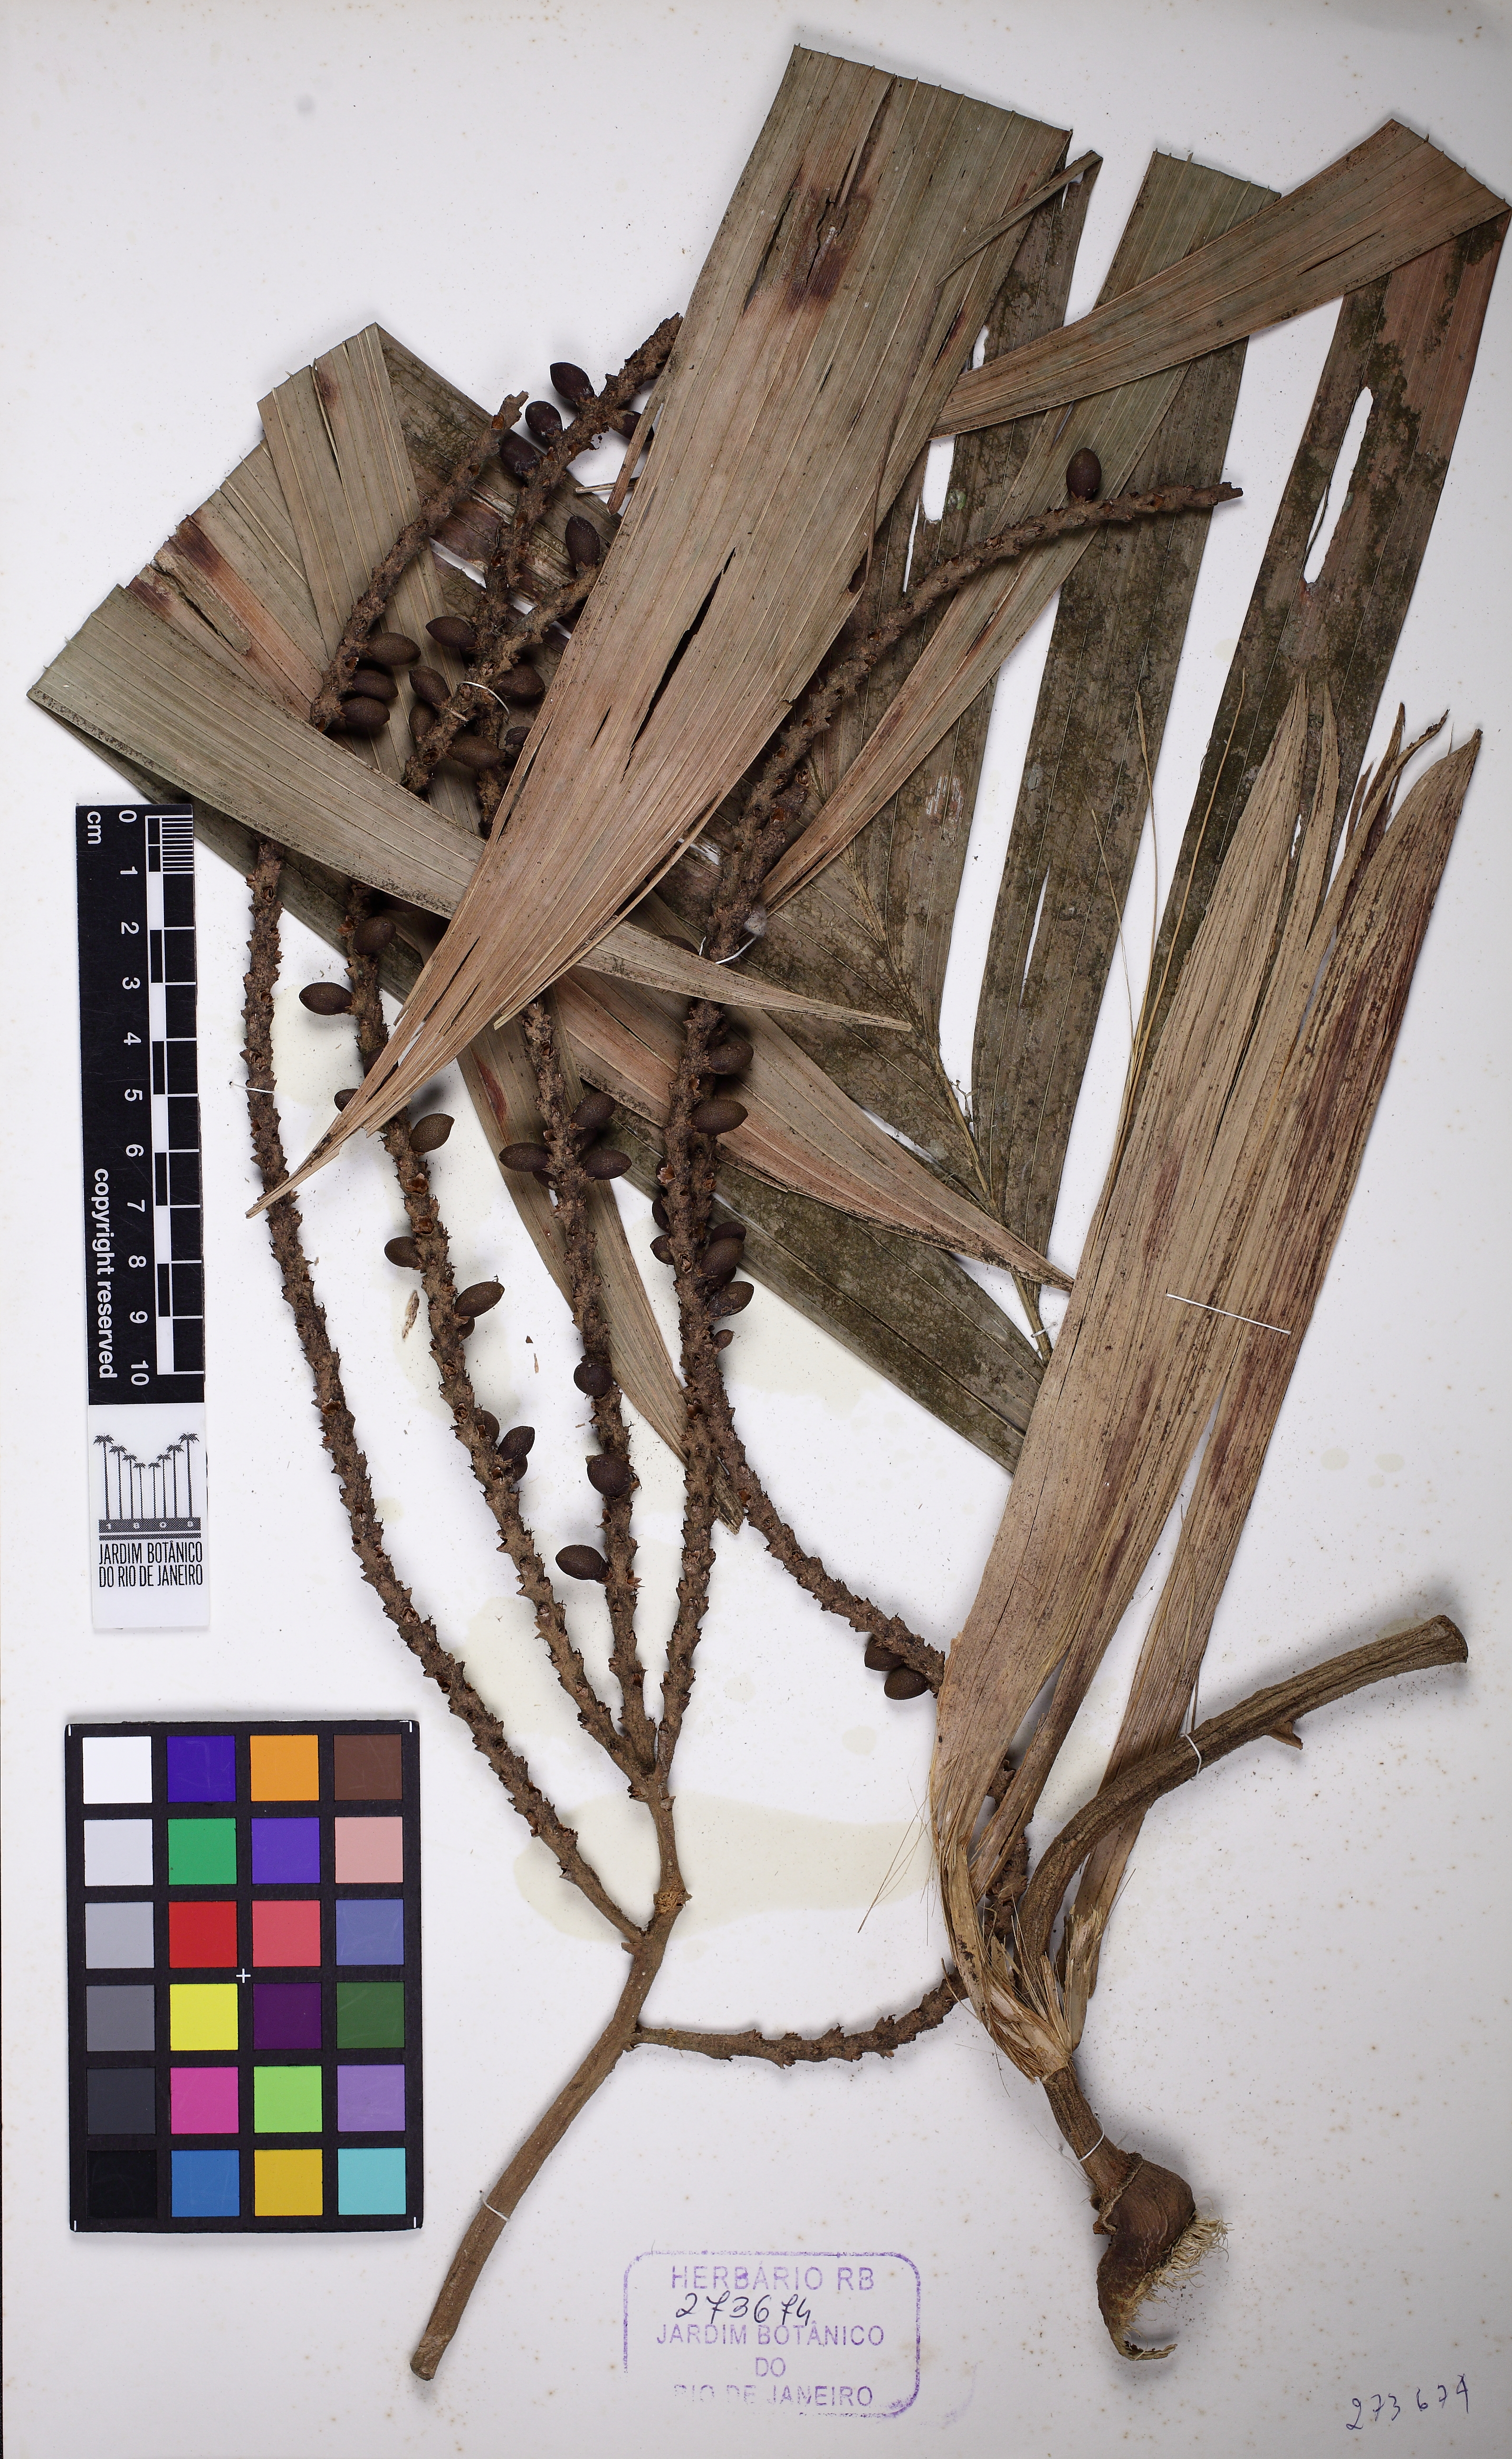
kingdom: Plantae
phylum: Tracheophyta
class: Liliopsida
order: Arecales
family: Arecaceae
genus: Geonoma
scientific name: Geonoma pohliana
